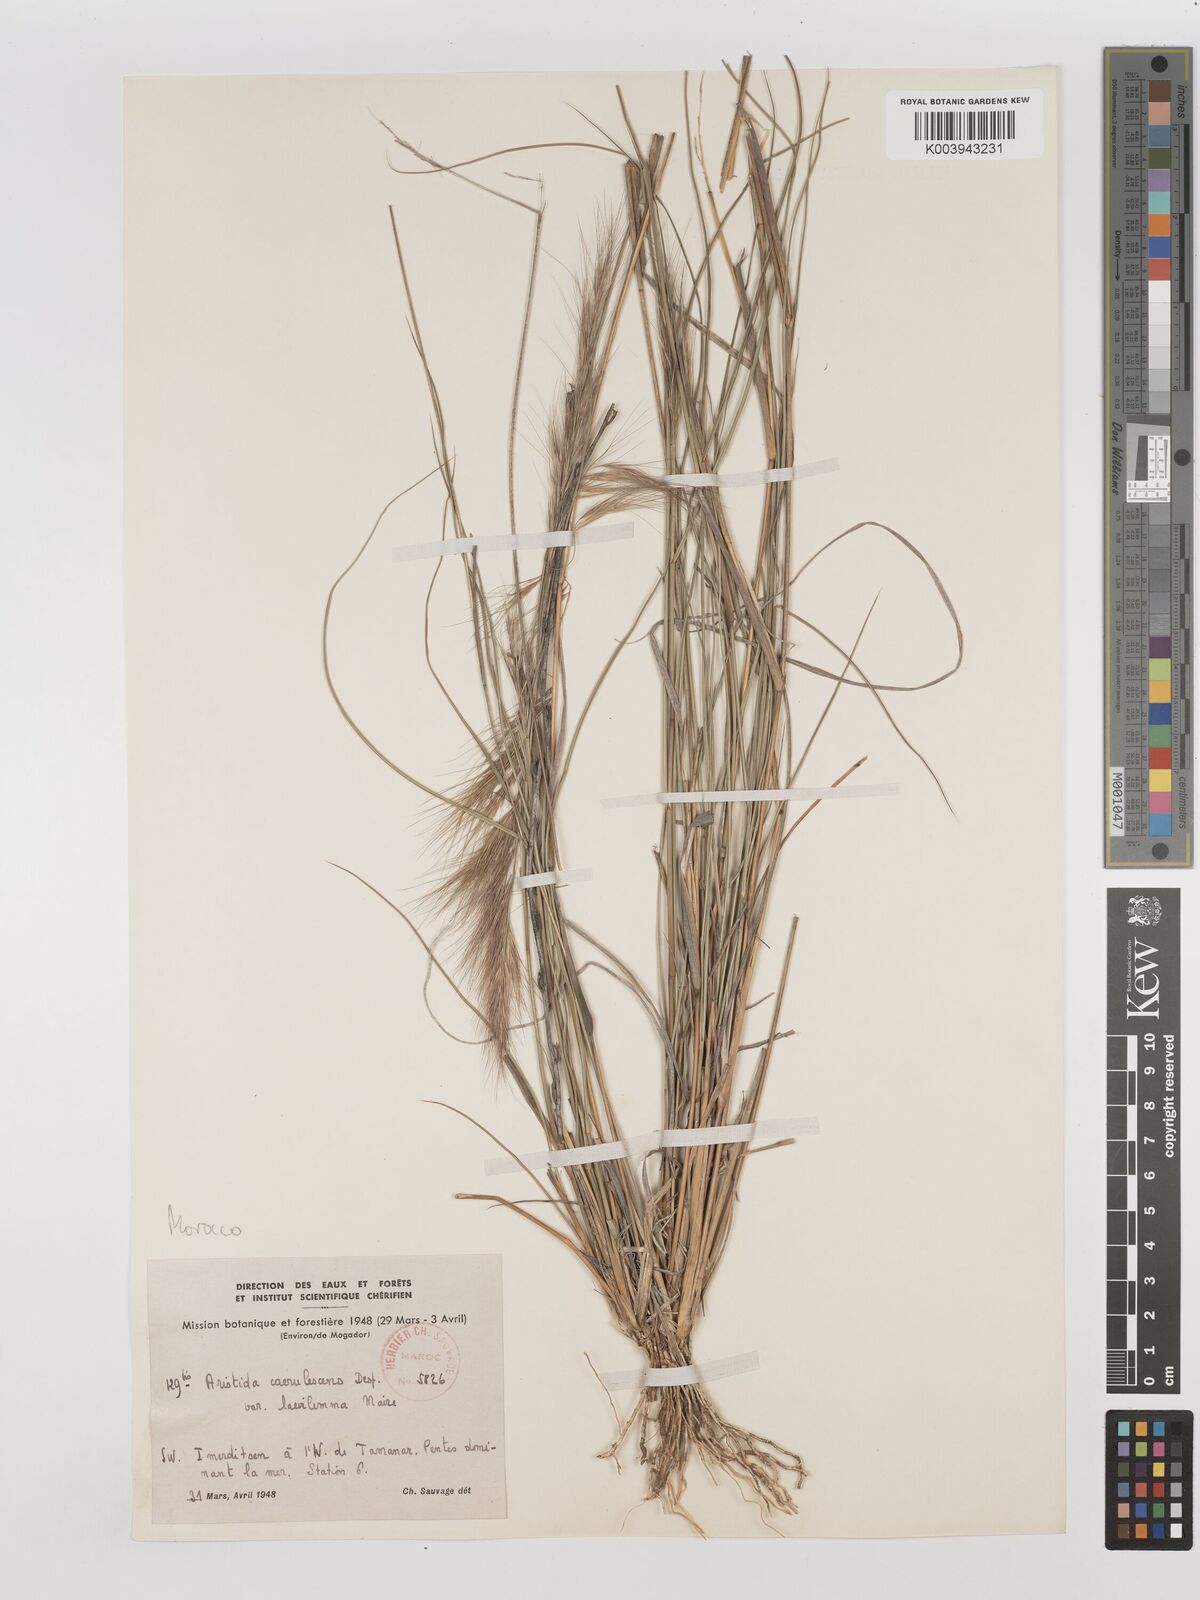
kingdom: Plantae
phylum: Tracheophyta
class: Liliopsida
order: Poales
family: Poaceae
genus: Aristida
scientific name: Aristida adscensionis
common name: Sixweeks threeawn
